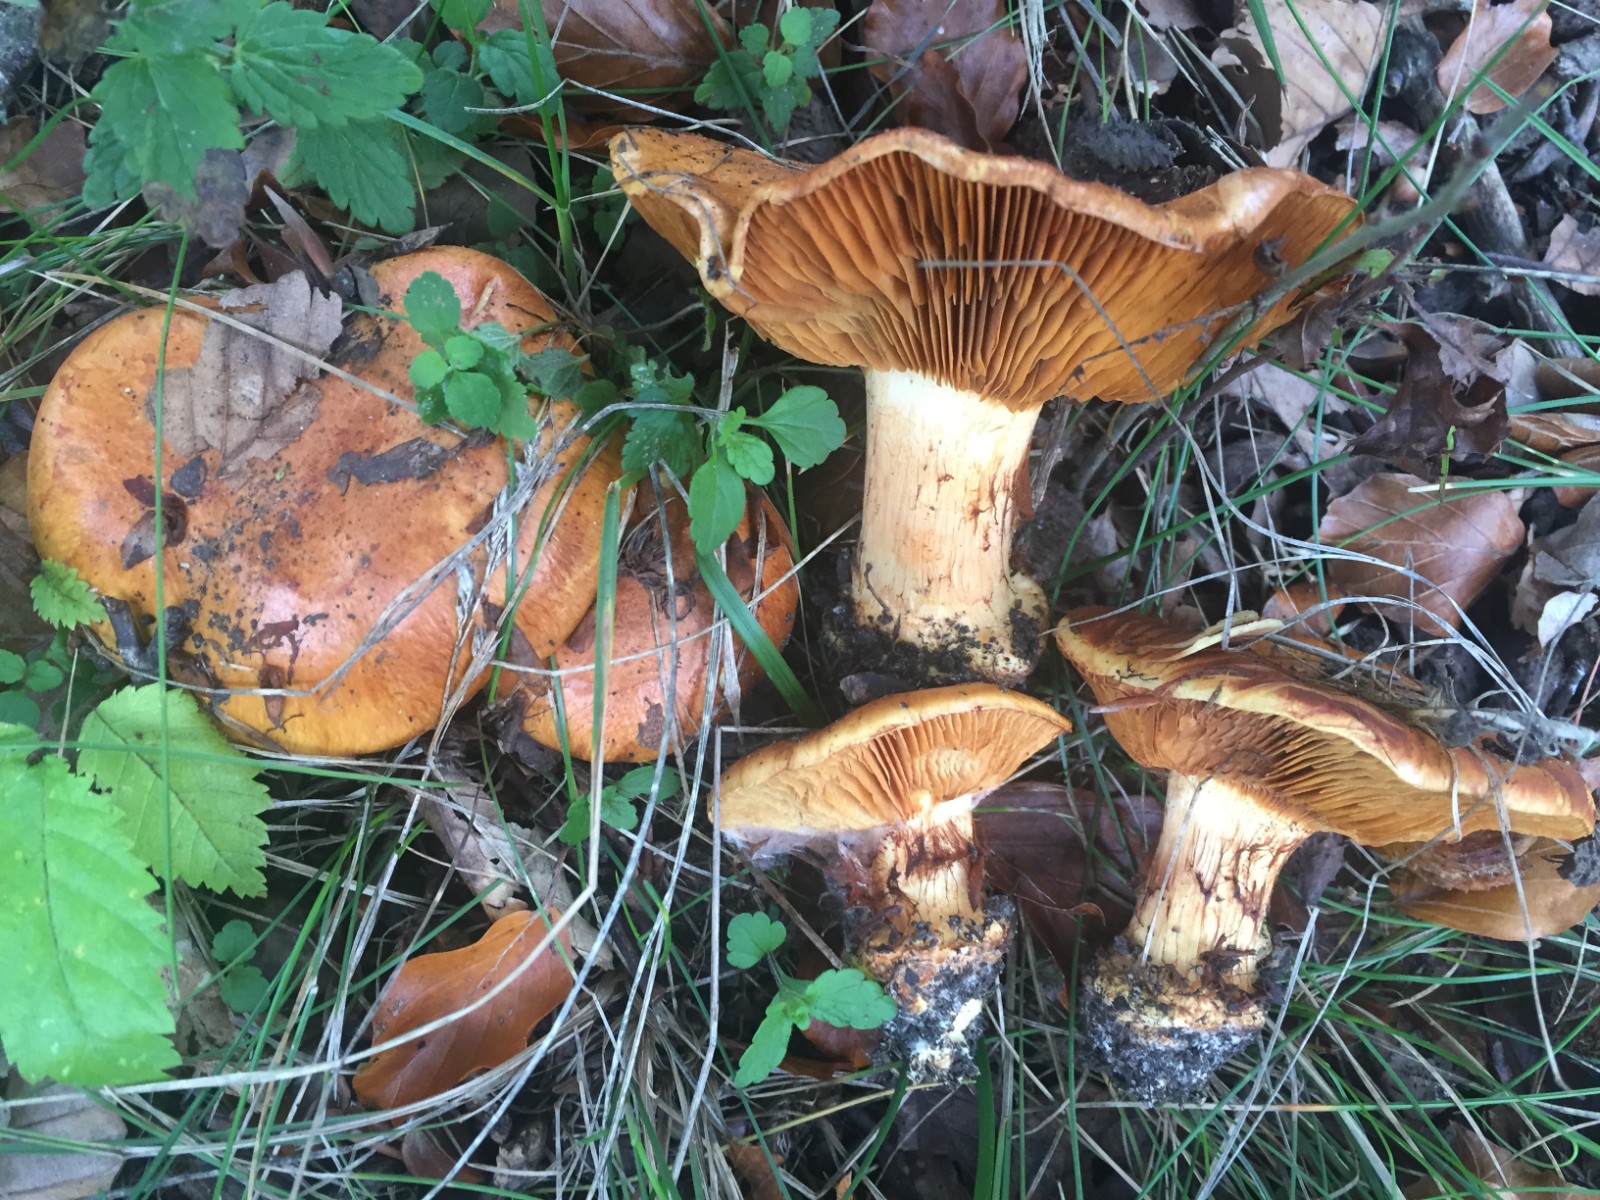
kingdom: Fungi
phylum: Basidiomycota
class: Agaricomycetes
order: Agaricales
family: Cortinariaceae
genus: Calonarius
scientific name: Calonarius olearioides
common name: safran-slørhat
